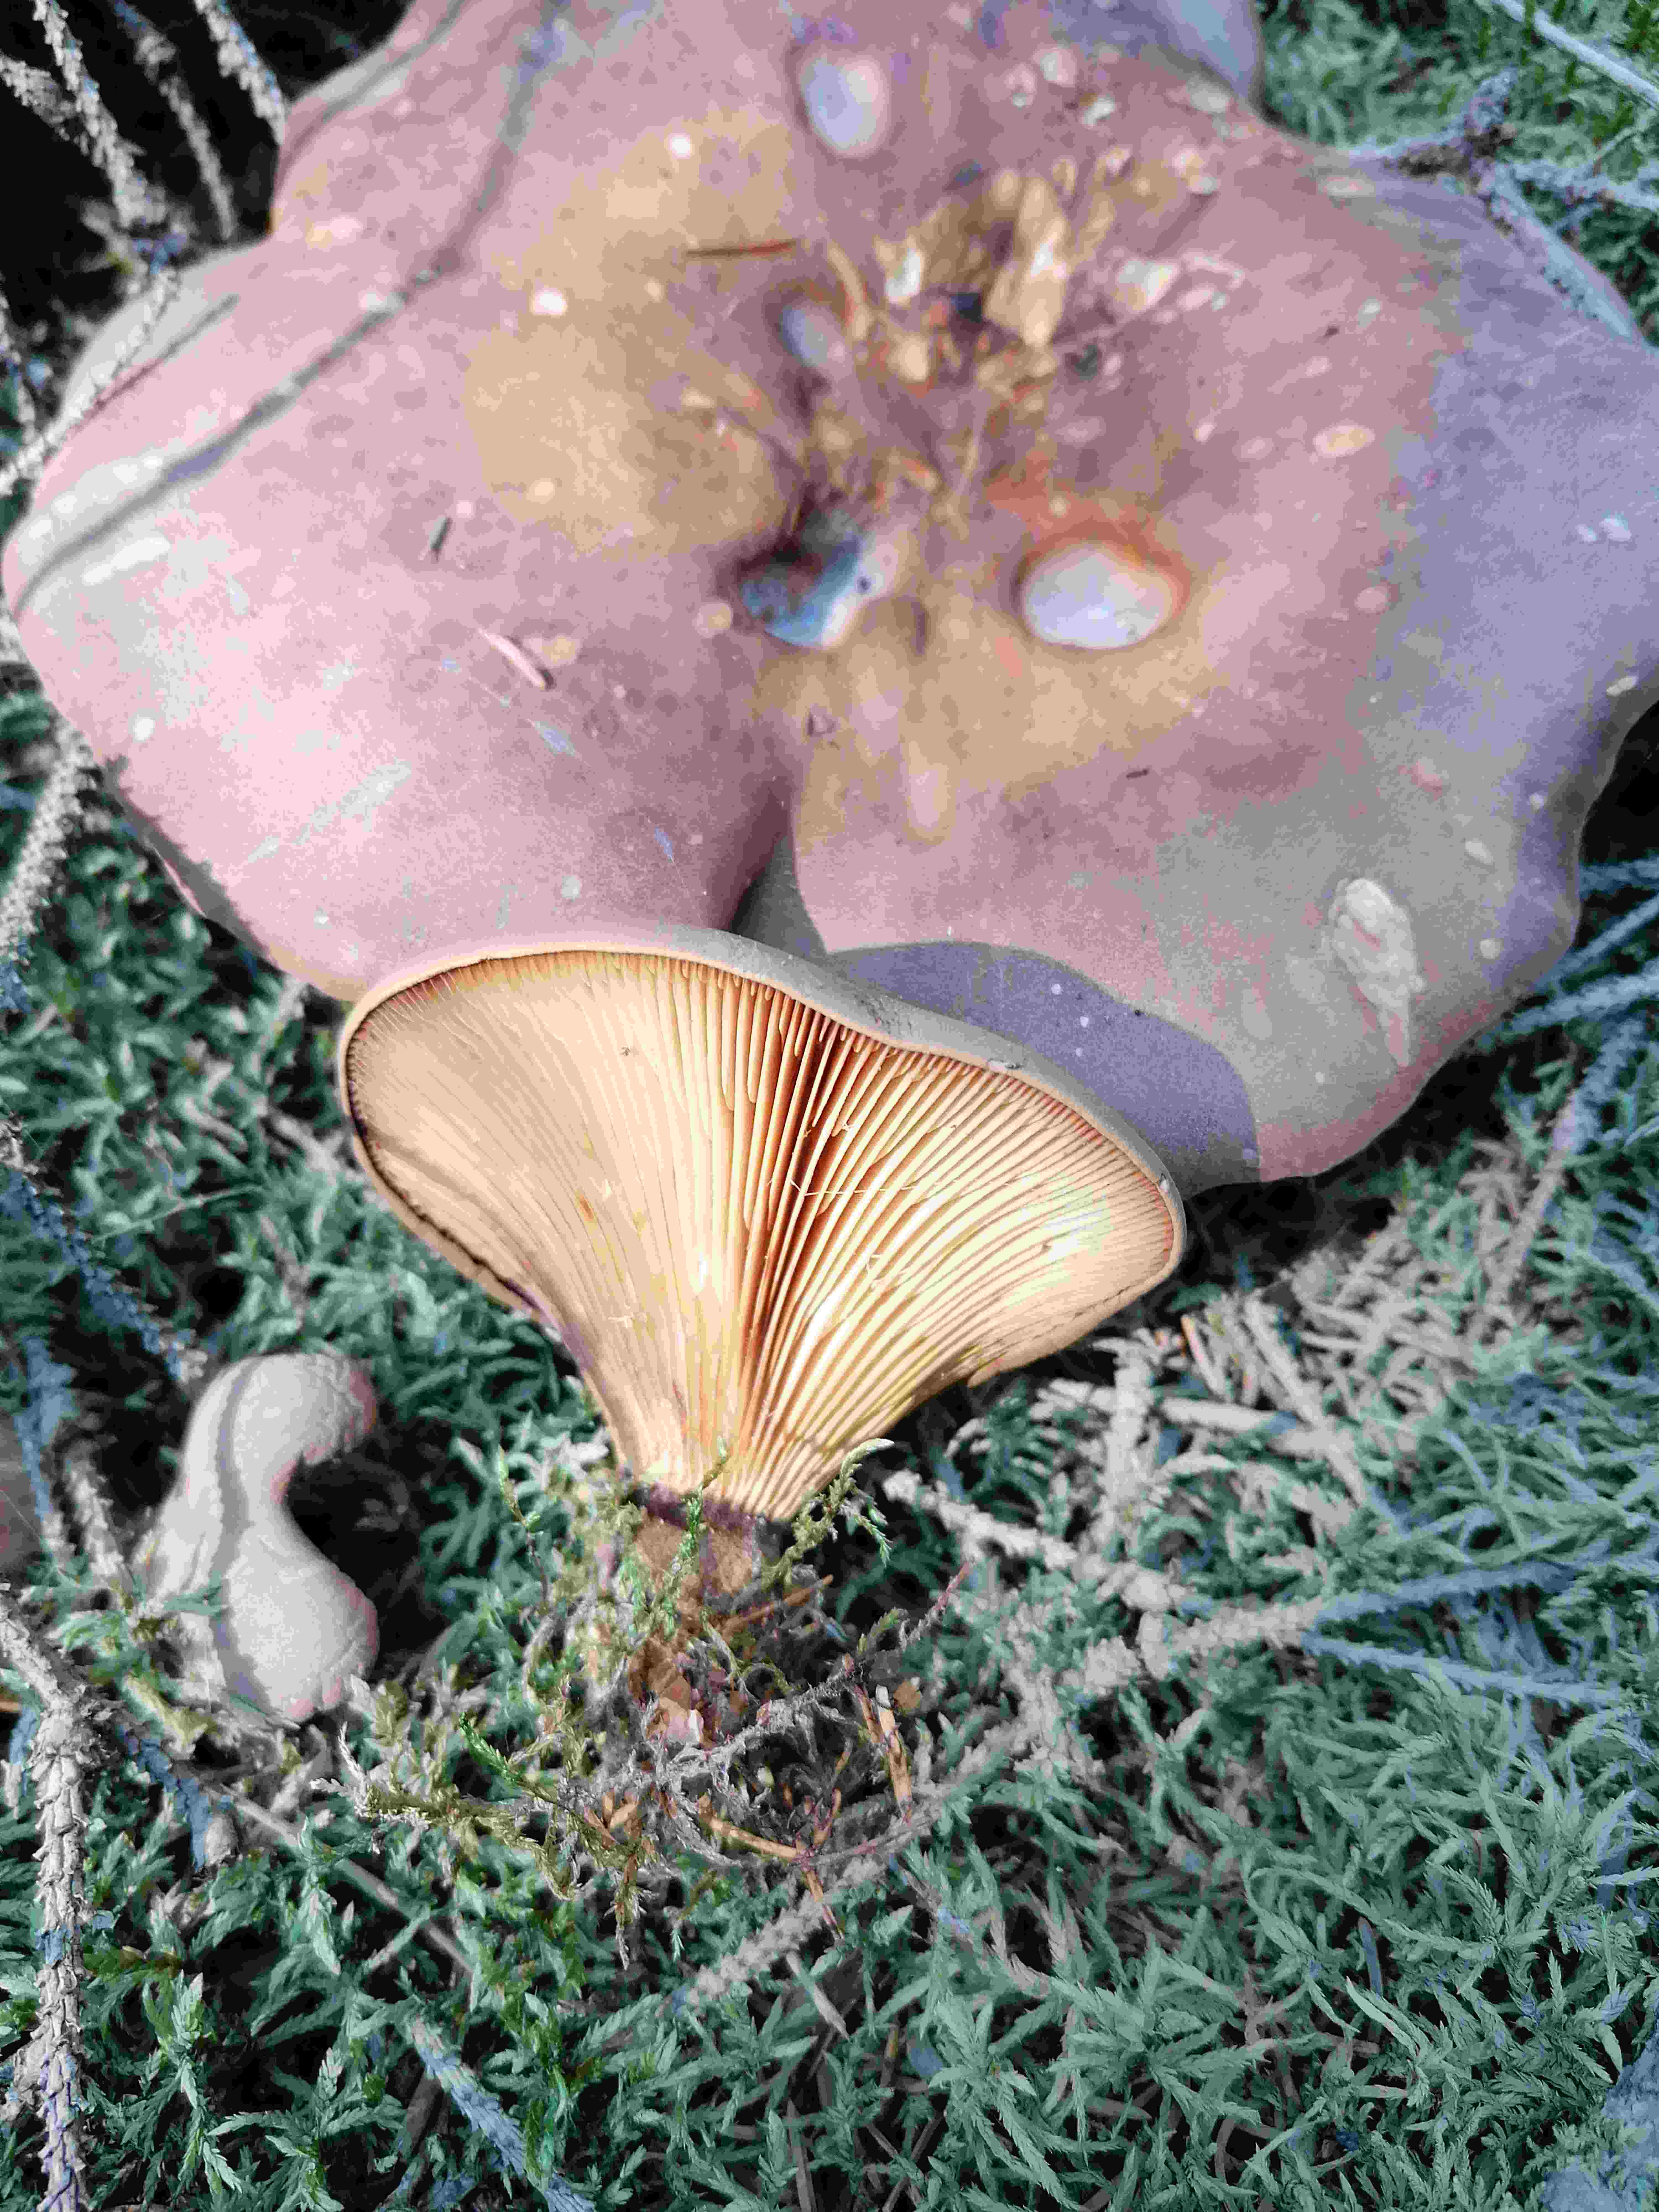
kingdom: Fungi
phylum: Basidiomycota
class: Agaricomycetes
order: Boletales
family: Tapinellaceae
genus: Tapinella
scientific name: Tapinella atrotomentosa
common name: sortfiltet viftesvamp
